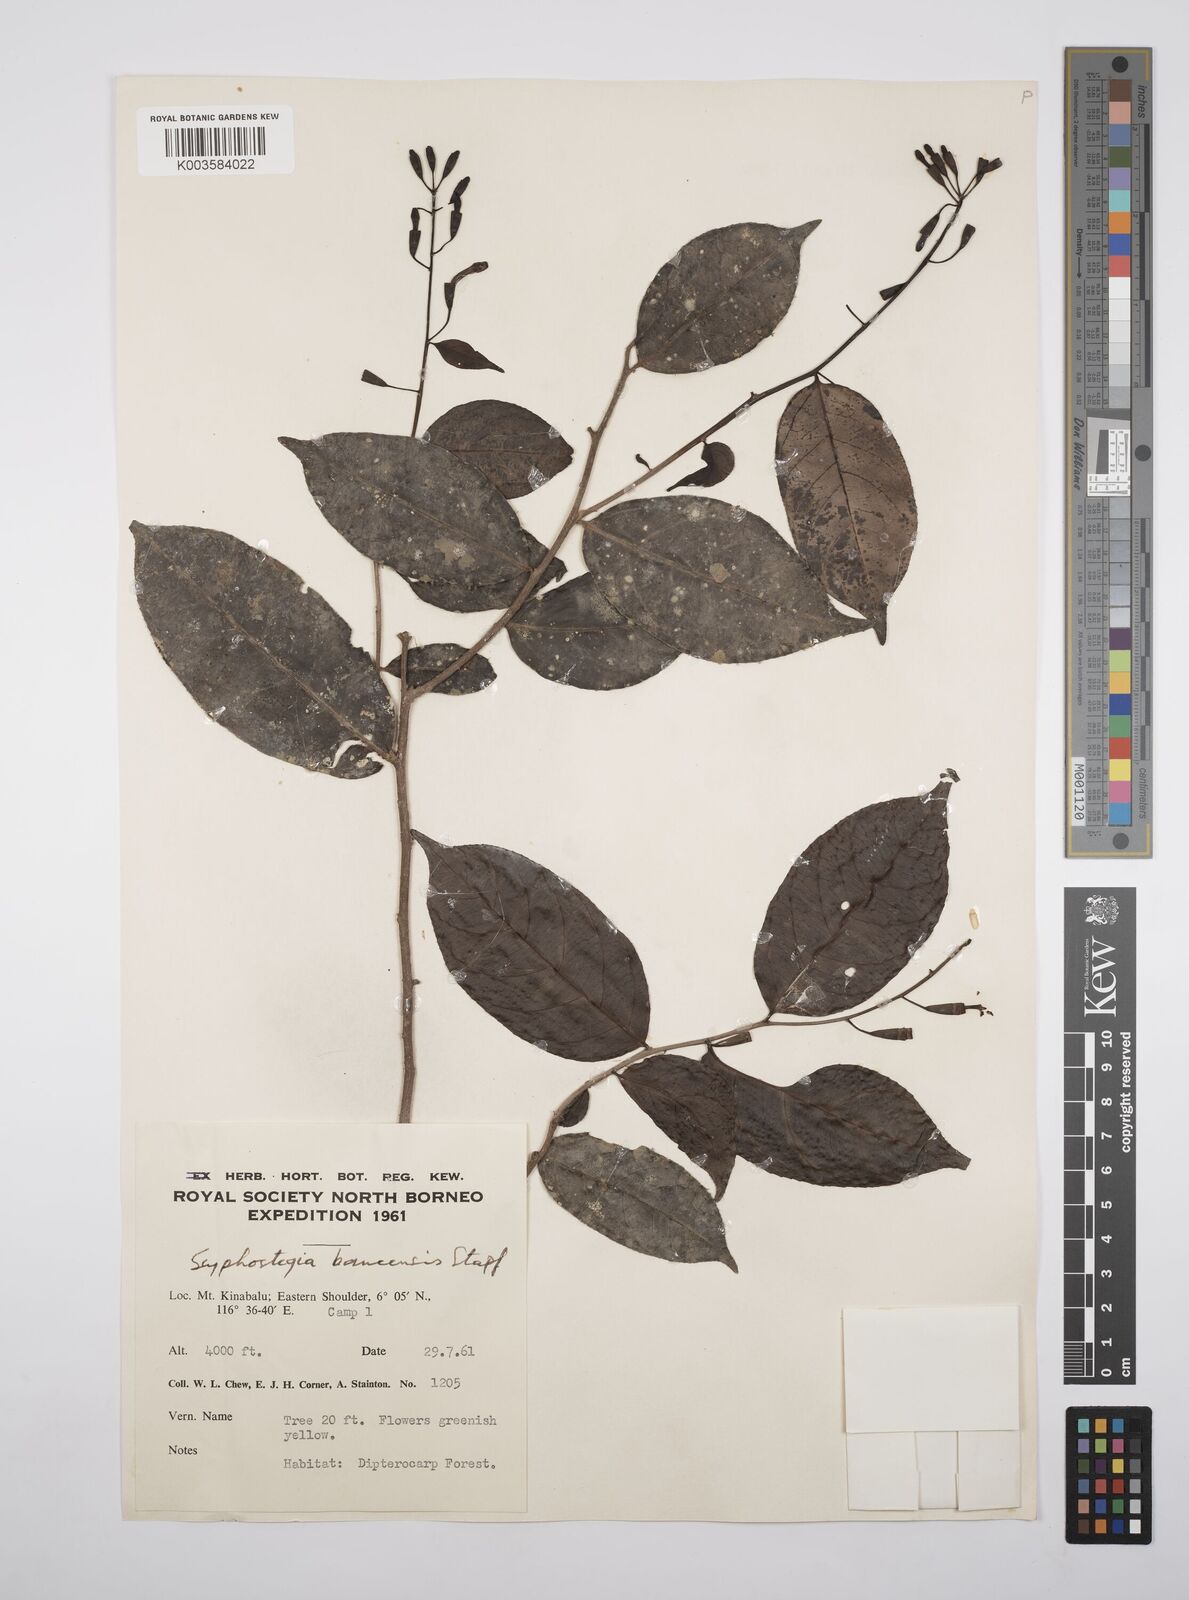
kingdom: Plantae
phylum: Tracheophyta
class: Magnoliopsida
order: Malpighiales
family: Salicaceae
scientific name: Salicaceae
